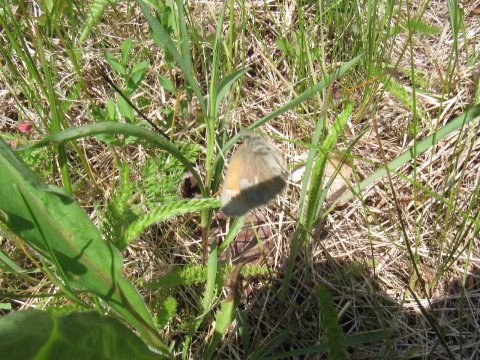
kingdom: Animalia
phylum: Arthropoda
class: Insecta
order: Lepidoptera
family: Nymphalidae
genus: Coenonympha
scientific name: Coenonympha tullia
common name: Large Heath
